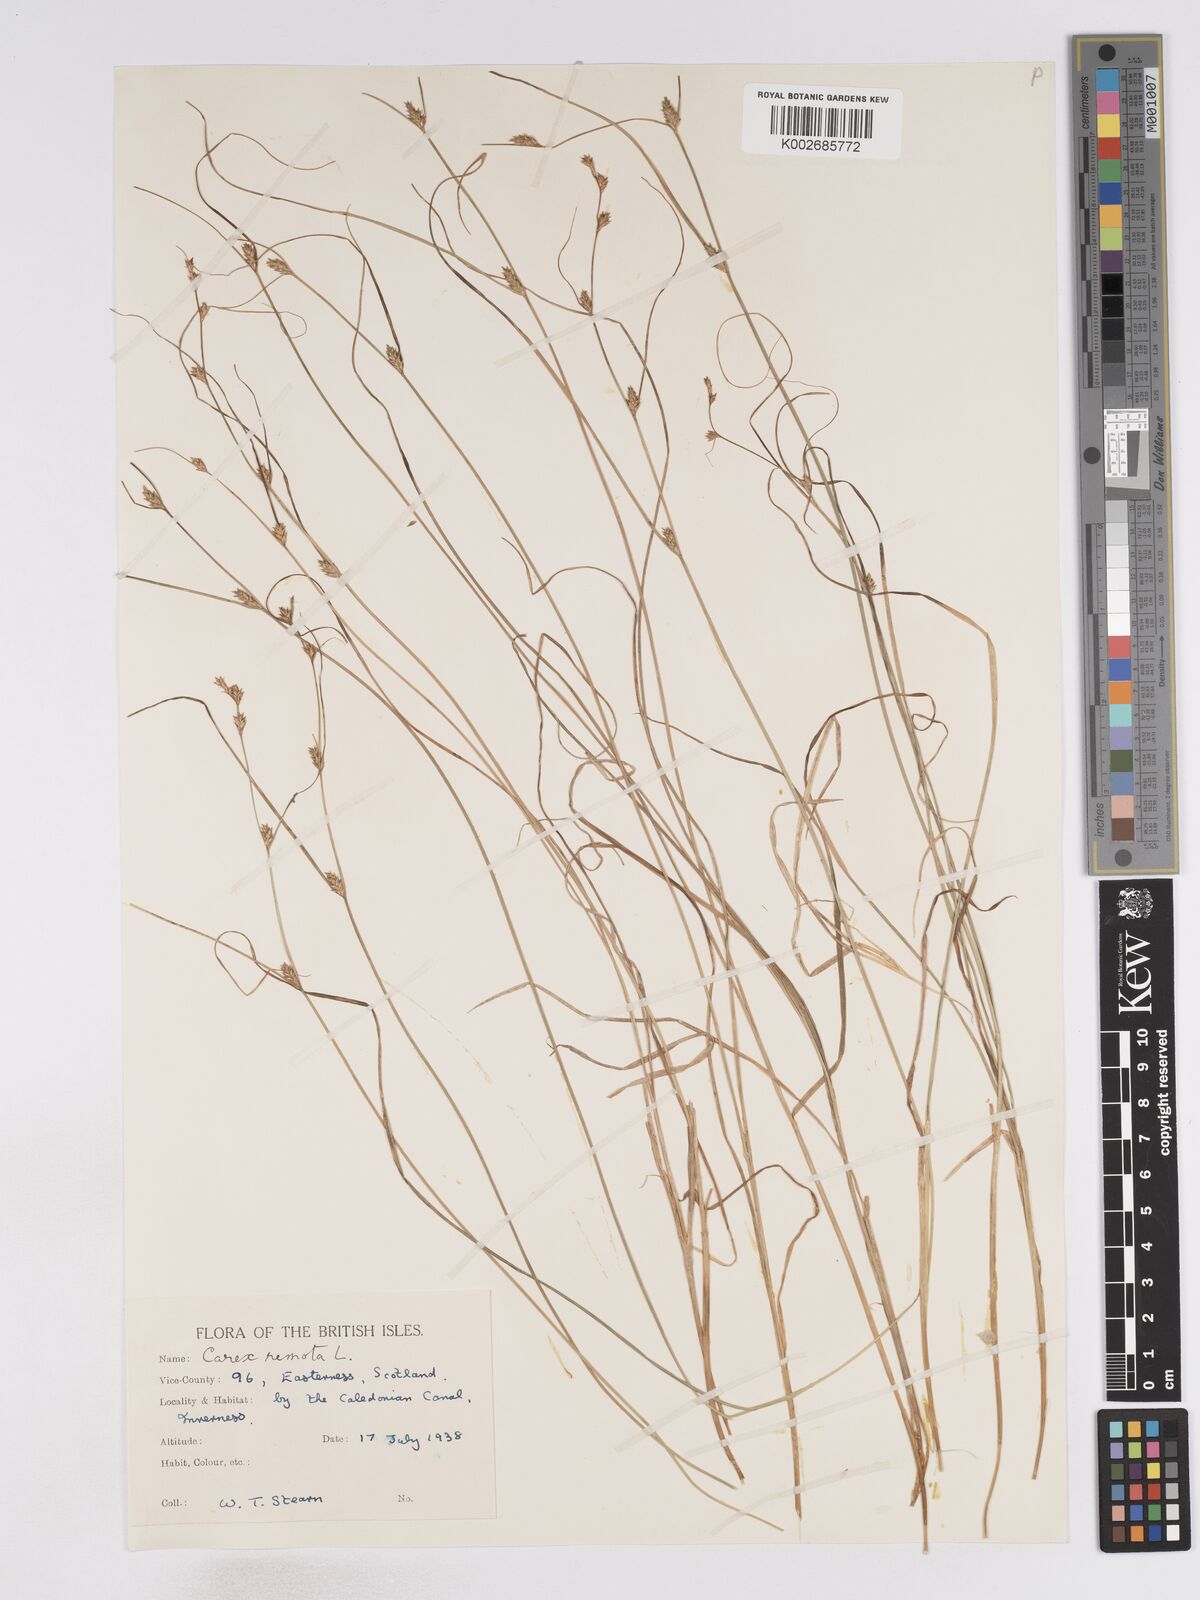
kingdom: Plantae
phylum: Tracheophyta
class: Liliopsida
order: Poales
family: Cyperaceae
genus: Carex
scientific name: Carex remota
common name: Remote sedge
